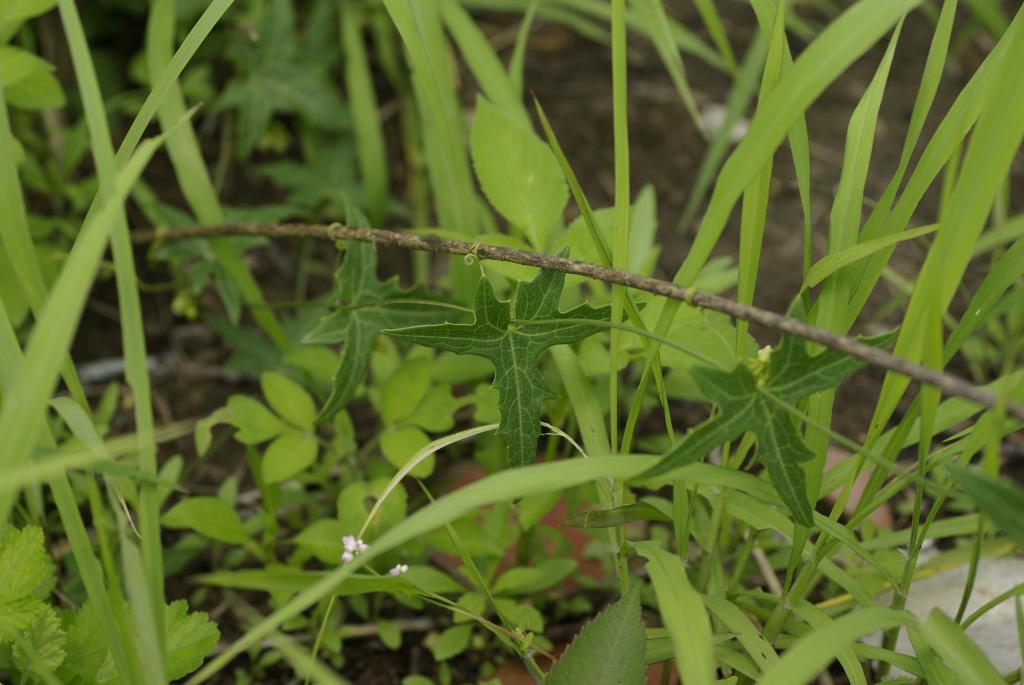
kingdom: Plantae
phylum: Tracheophyta
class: Magnoliopsida
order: Cucurbitales
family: Cucurbitaceae
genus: Solena
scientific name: Solena amplexicaulis
